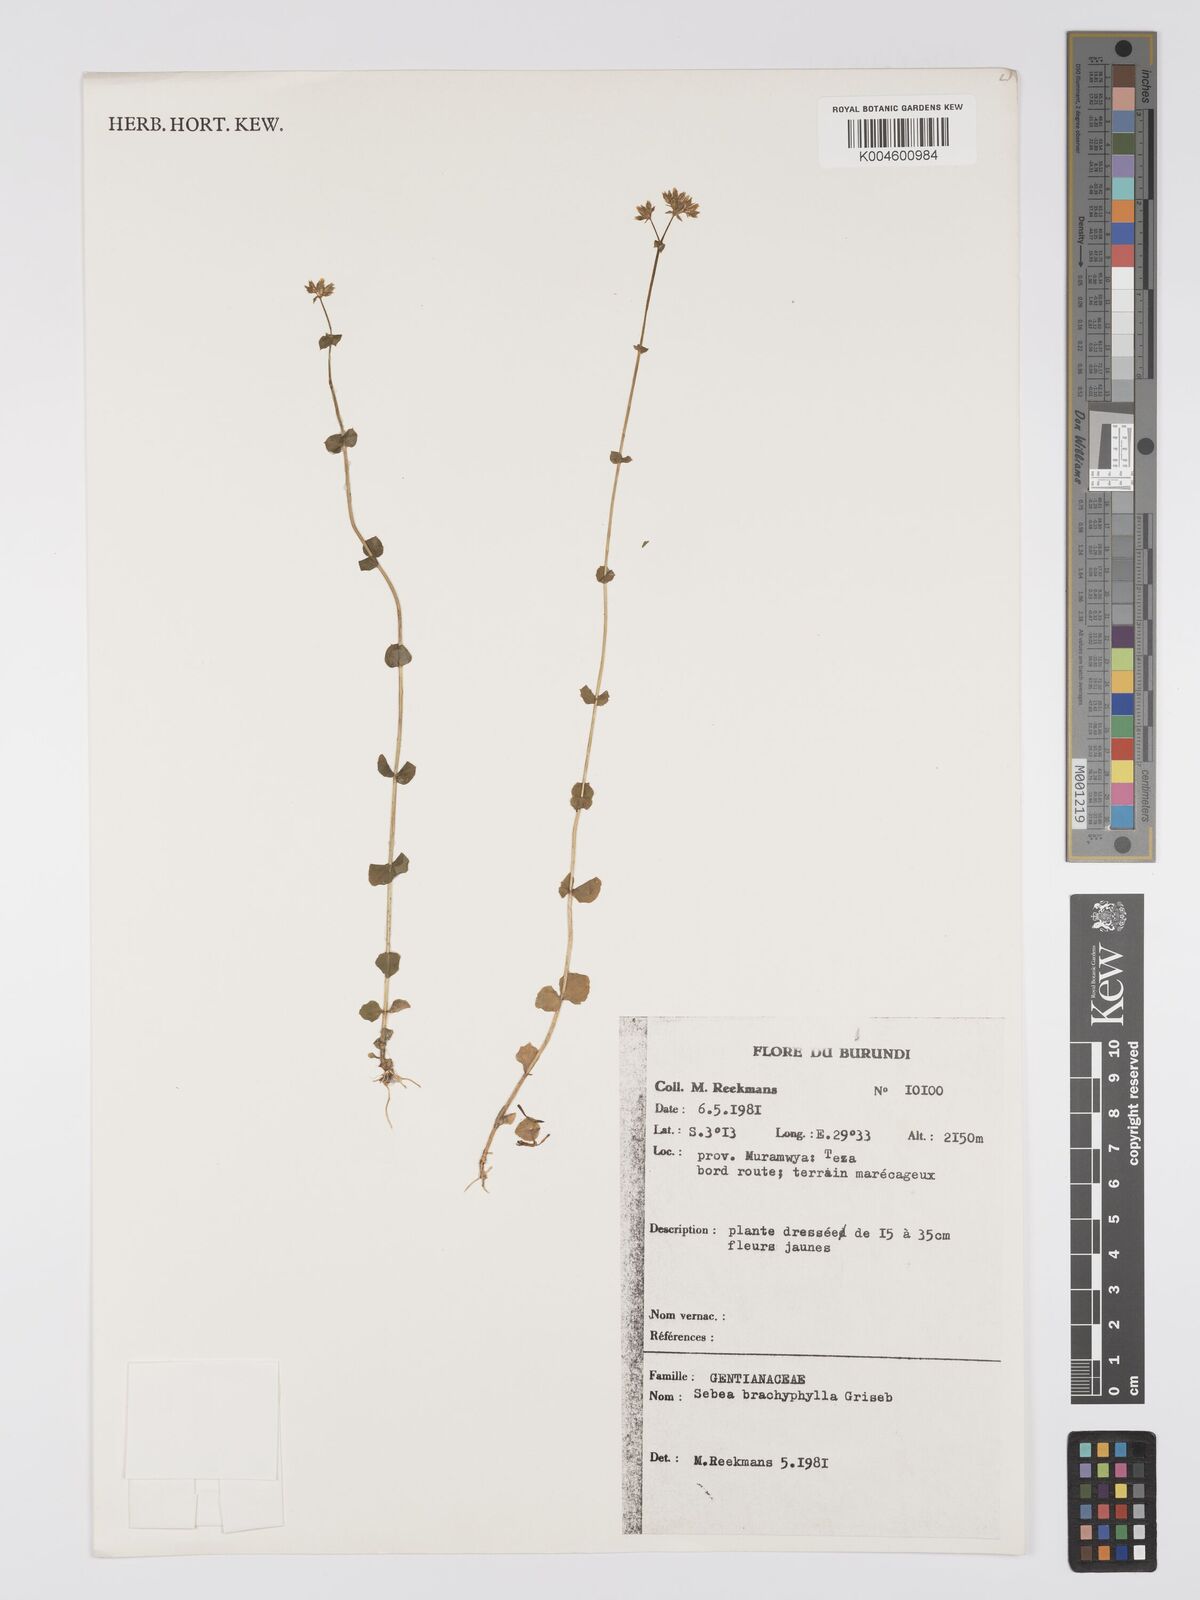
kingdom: Plantae
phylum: Tracheophyta
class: Magnoliopsida
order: Gentianales
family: Gentianaceae
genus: Sebaea
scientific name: Sebaea brachyphylla
